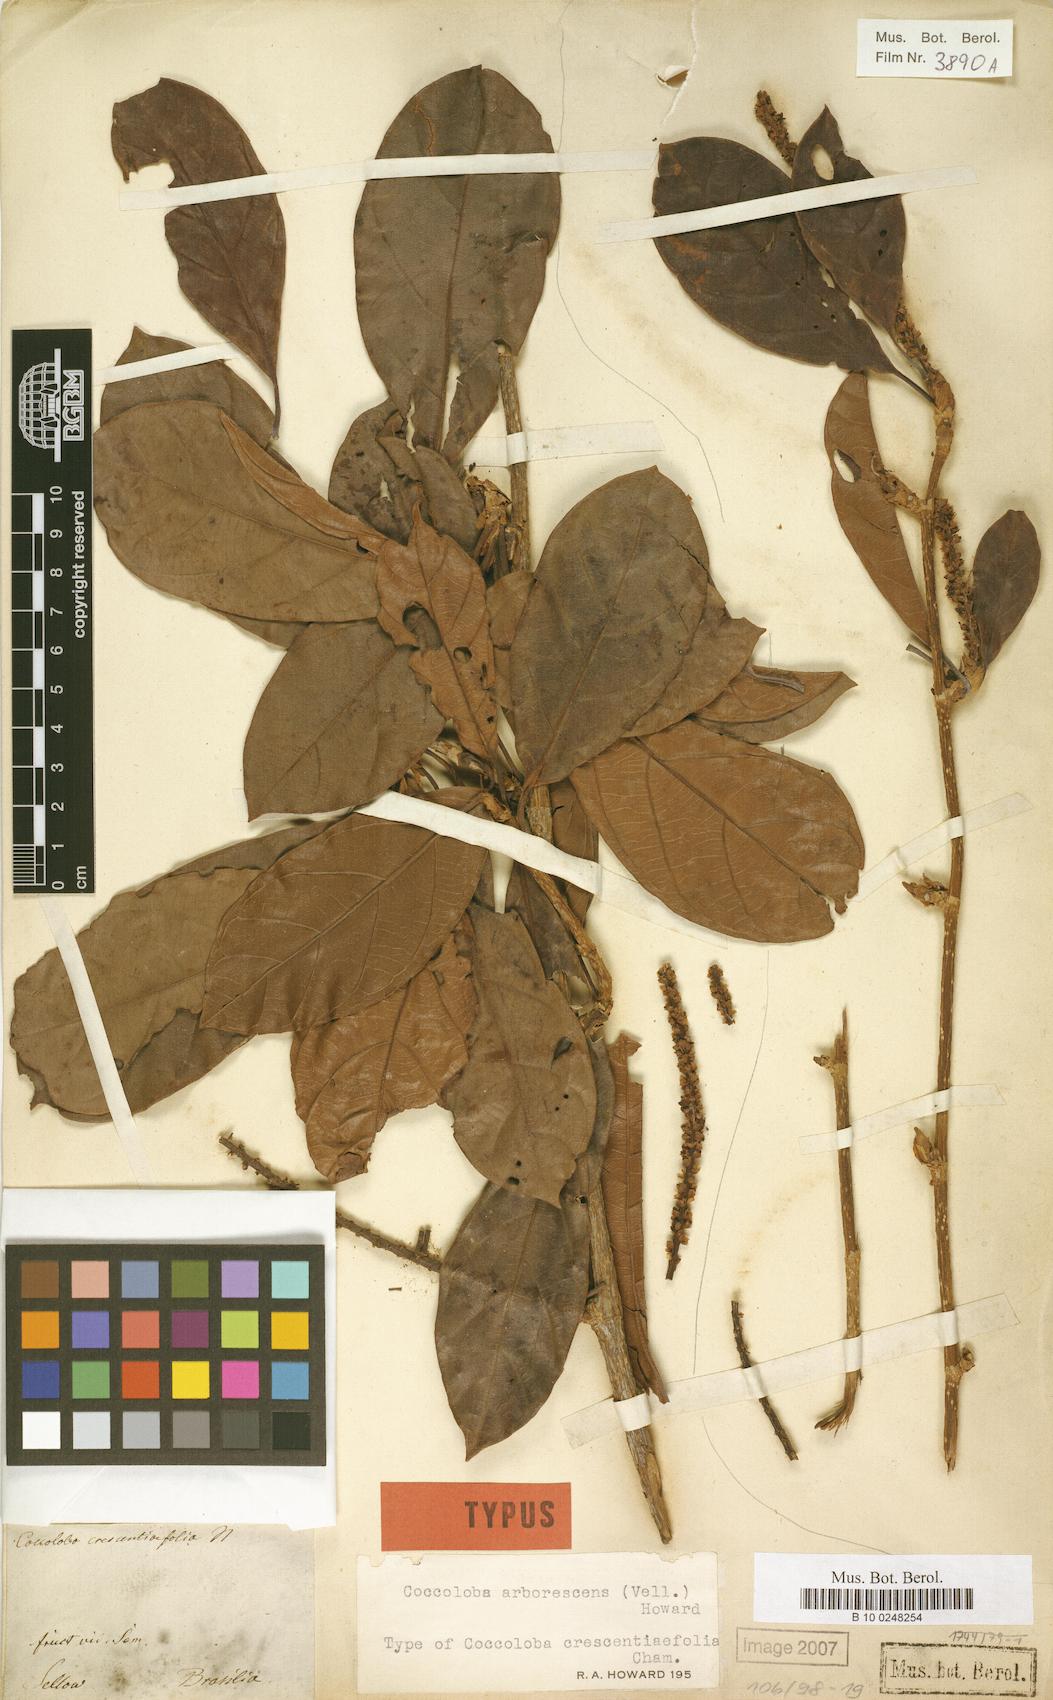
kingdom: Plantae
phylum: Tracheophyta
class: Magnoliopsida
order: Caryophyllales
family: Polygonaceae
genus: Coccoloba
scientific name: Coccoloba arborescens
